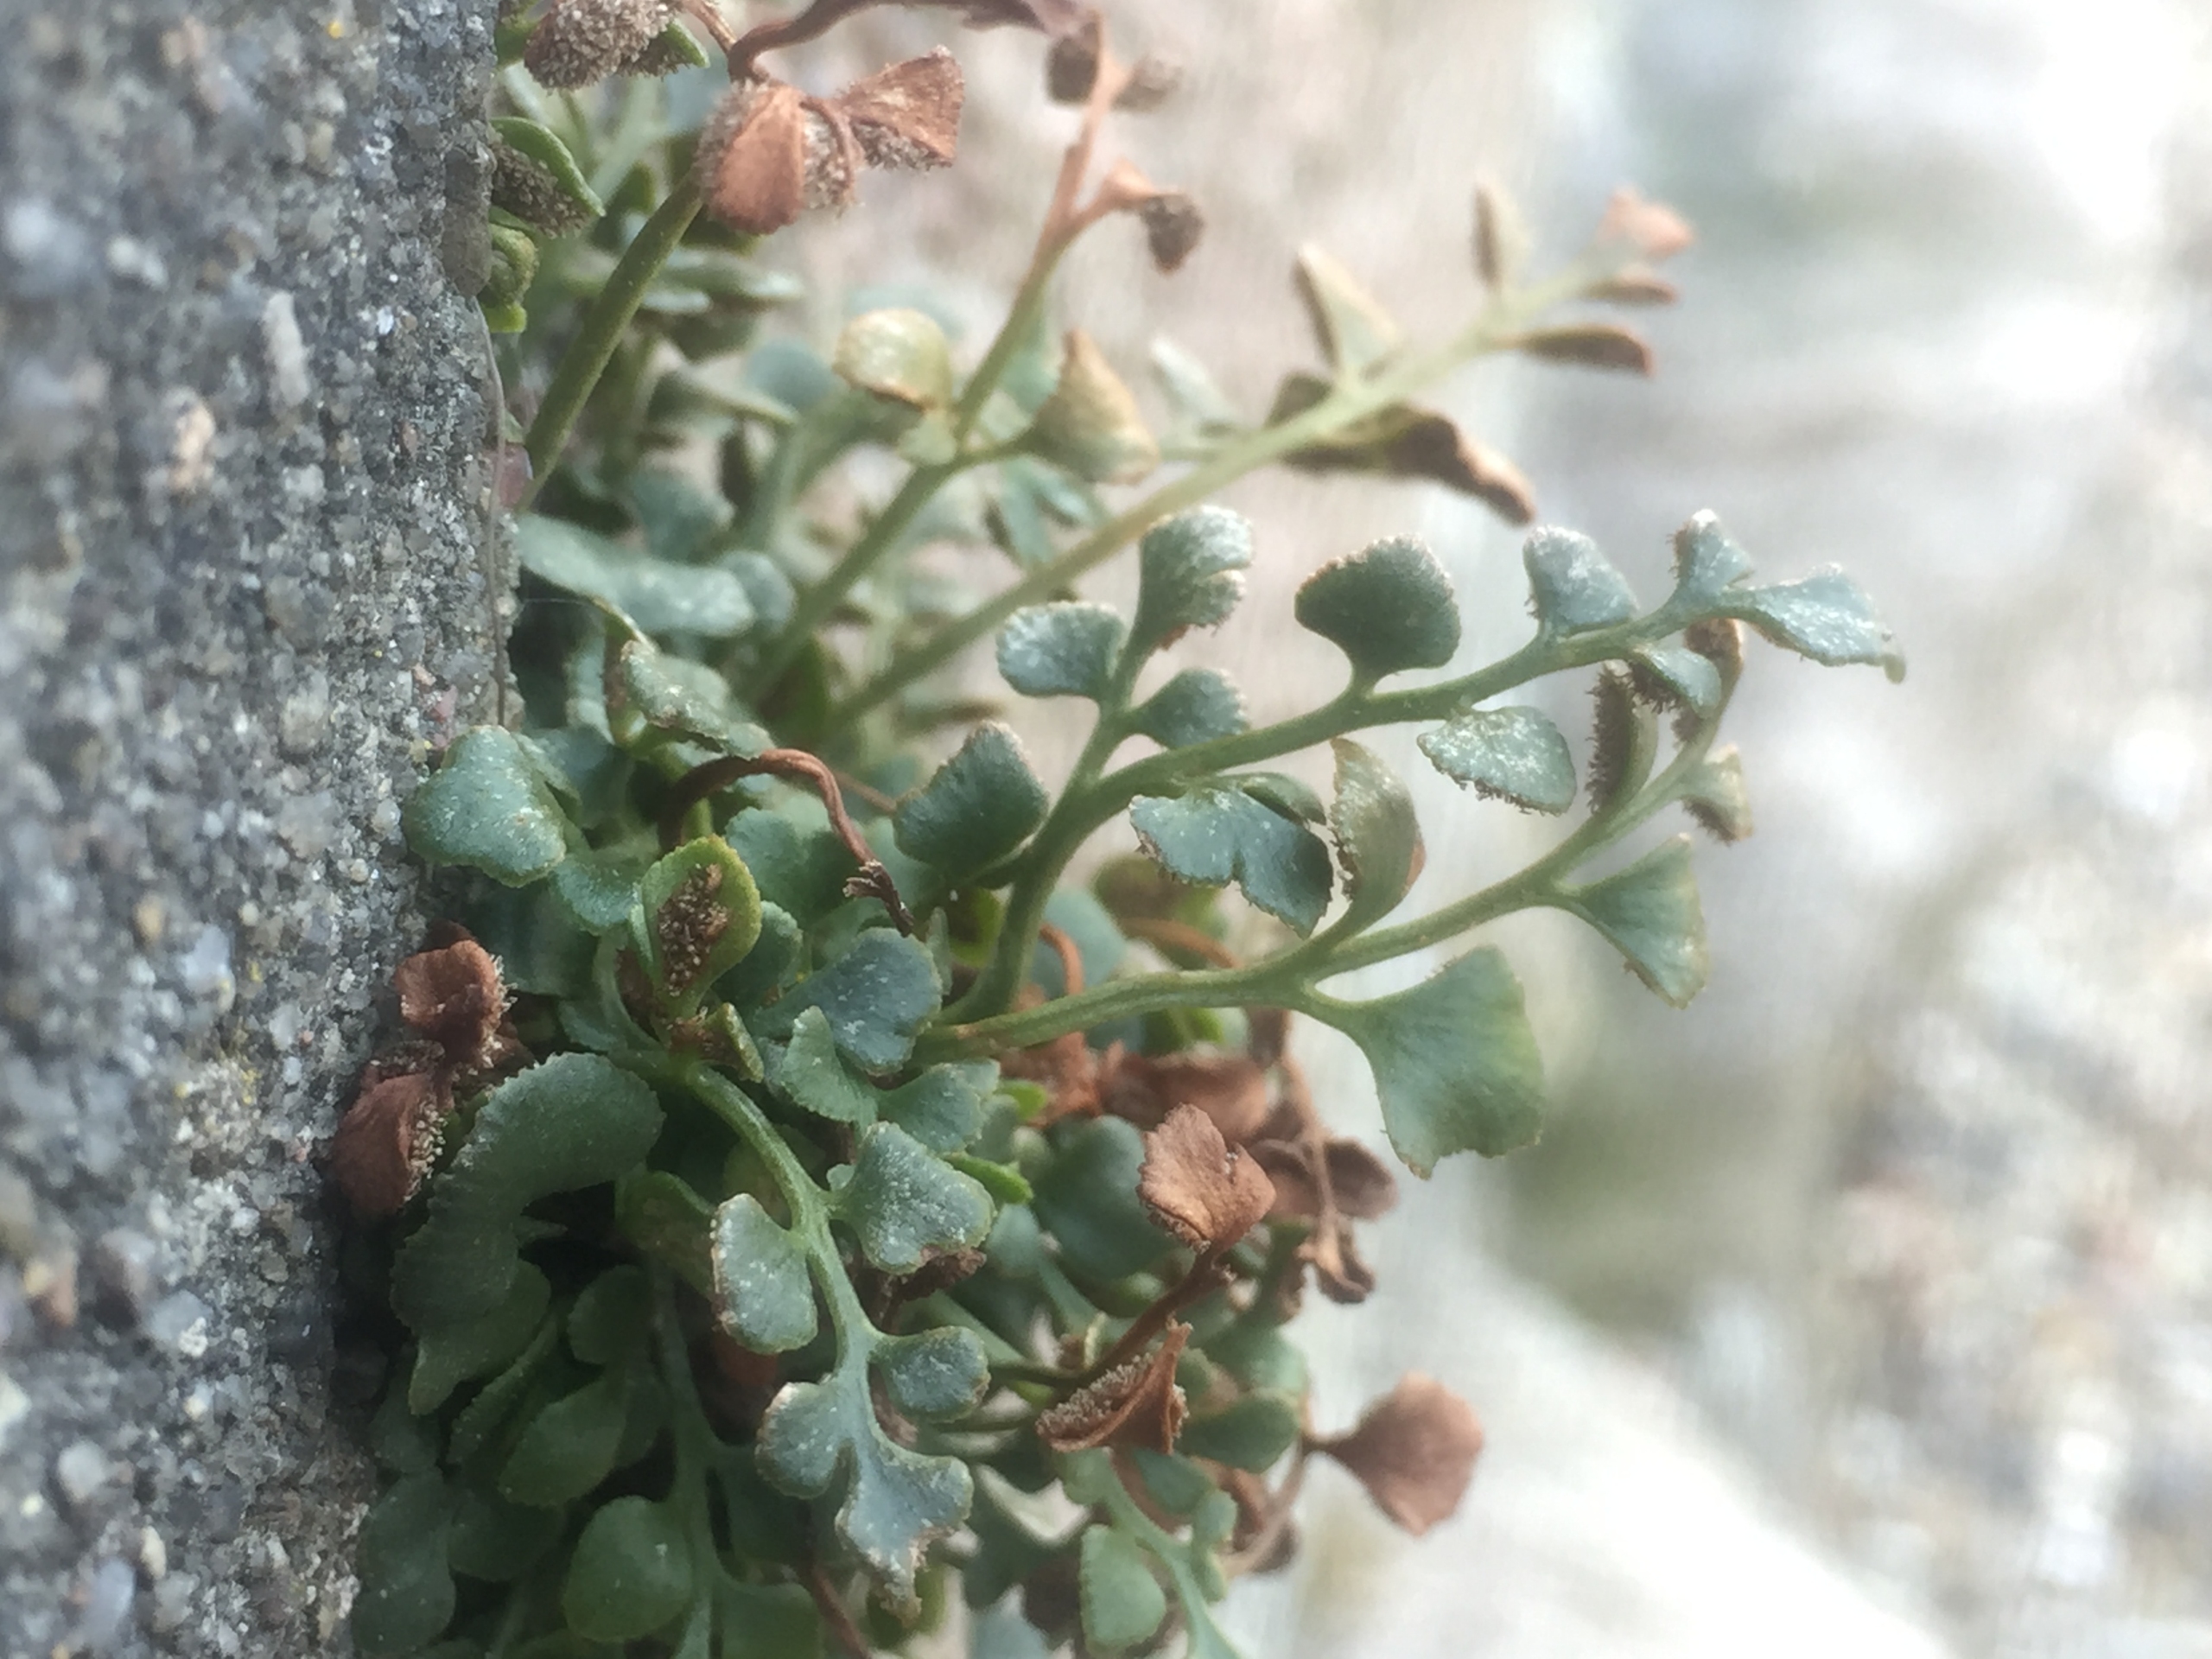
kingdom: Plantae
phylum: Tracheophyta
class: Polypodiopsida
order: Polypodiales
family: Aspleniaceae
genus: Asplenium
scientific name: Asplenium ruta-muraria
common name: Murrude
